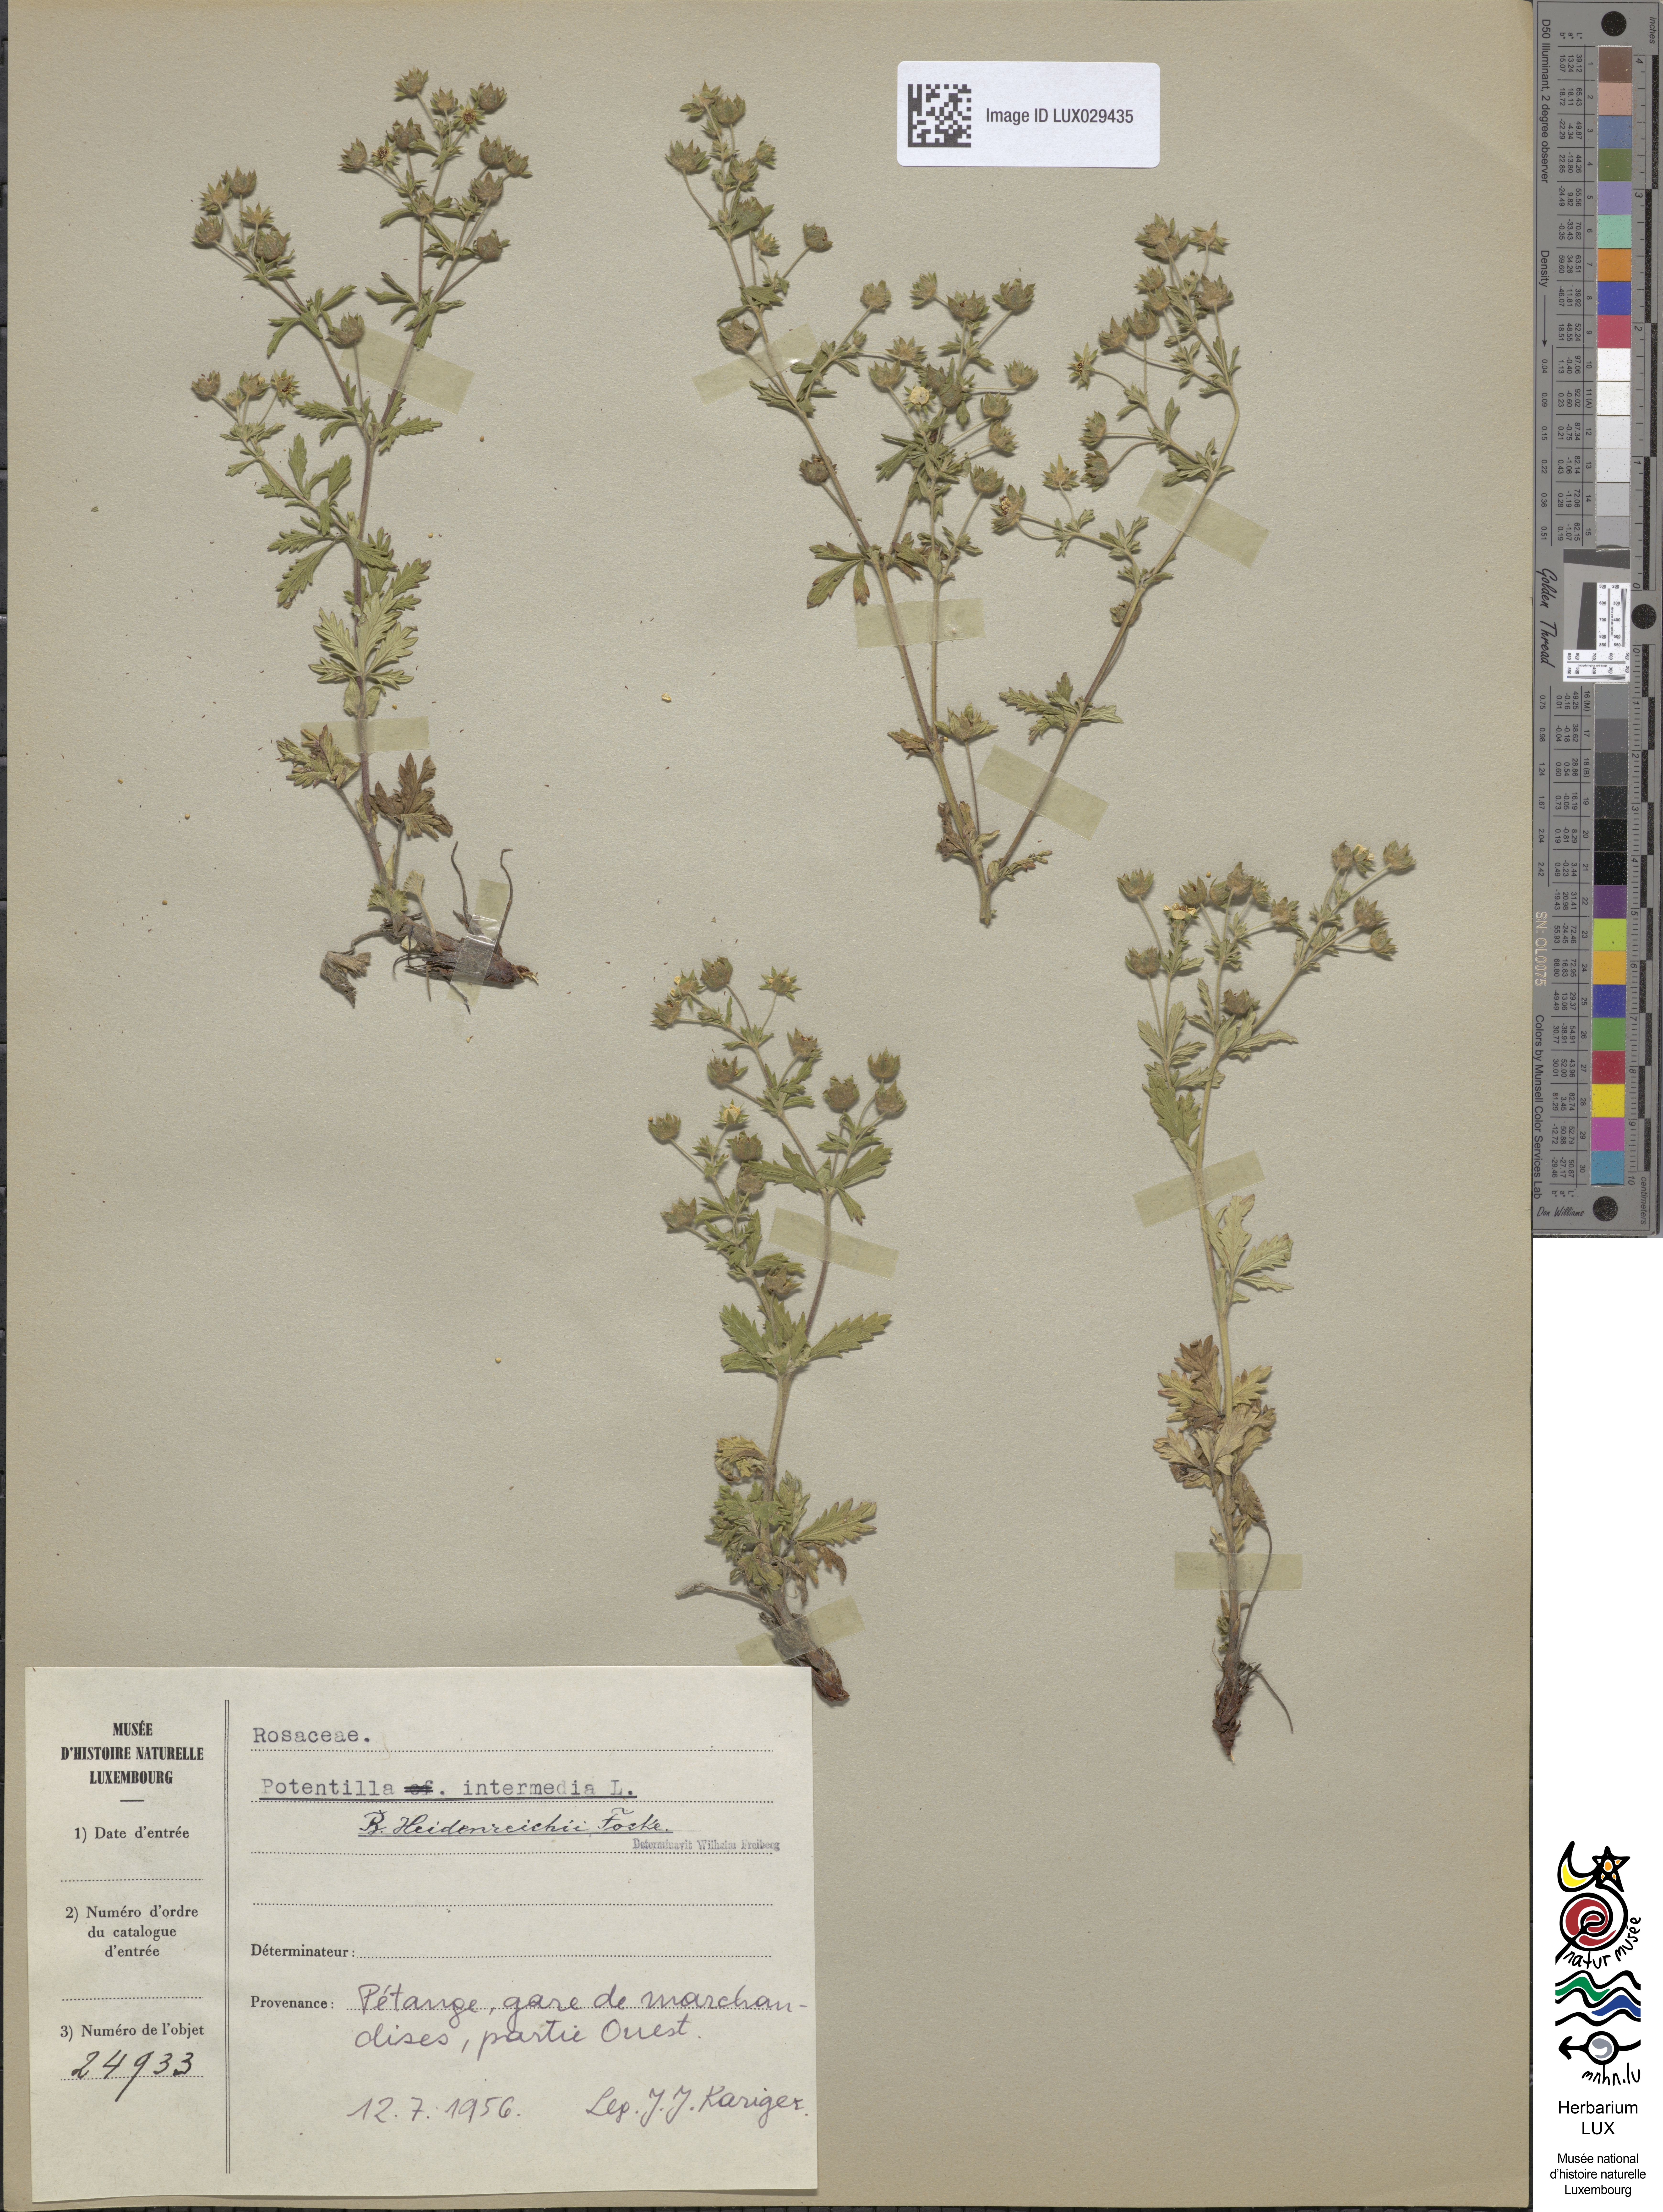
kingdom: Plantae
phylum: Tracheophyta
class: Magnoliopsida
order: Rosales
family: Rosaceae
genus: Potentilla
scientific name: Potentilla intermedia
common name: Downy cinquefoil
